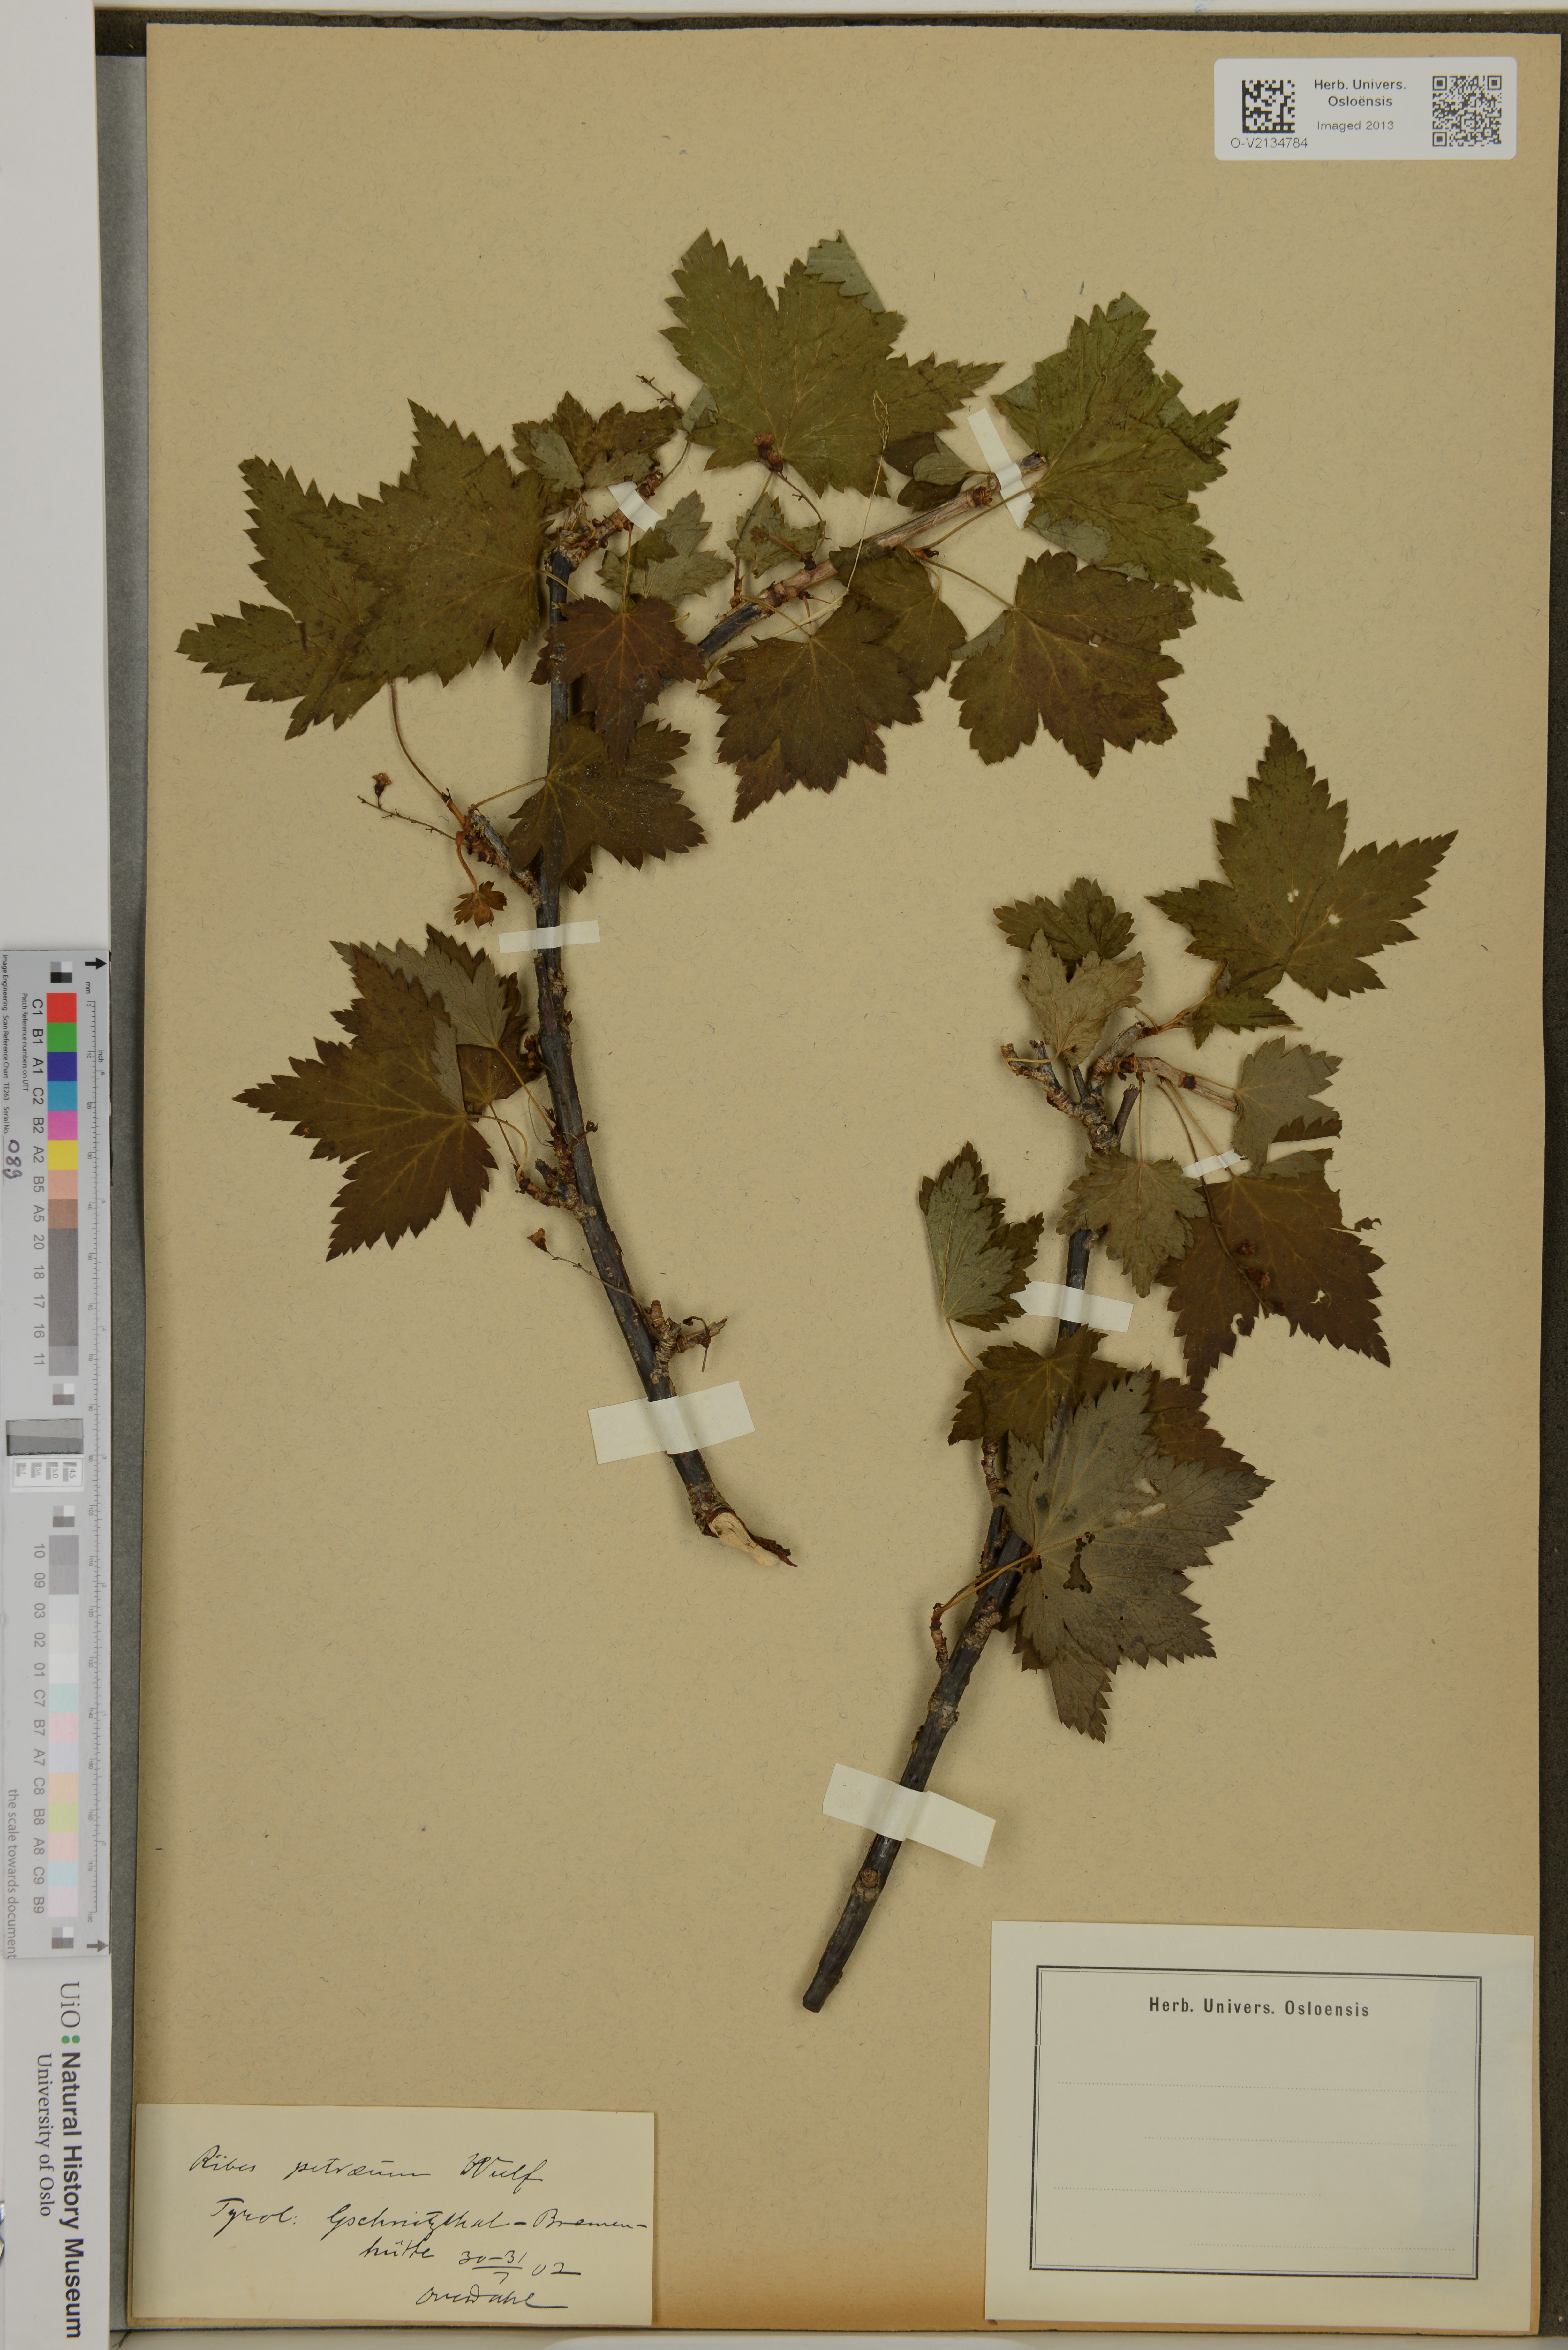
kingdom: Plantae
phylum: Tracheophyta
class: Magnoliopsida
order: Saxifragales
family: Grossulariaceae
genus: Ribes
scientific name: Ribes petraeum
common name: Rock currant
